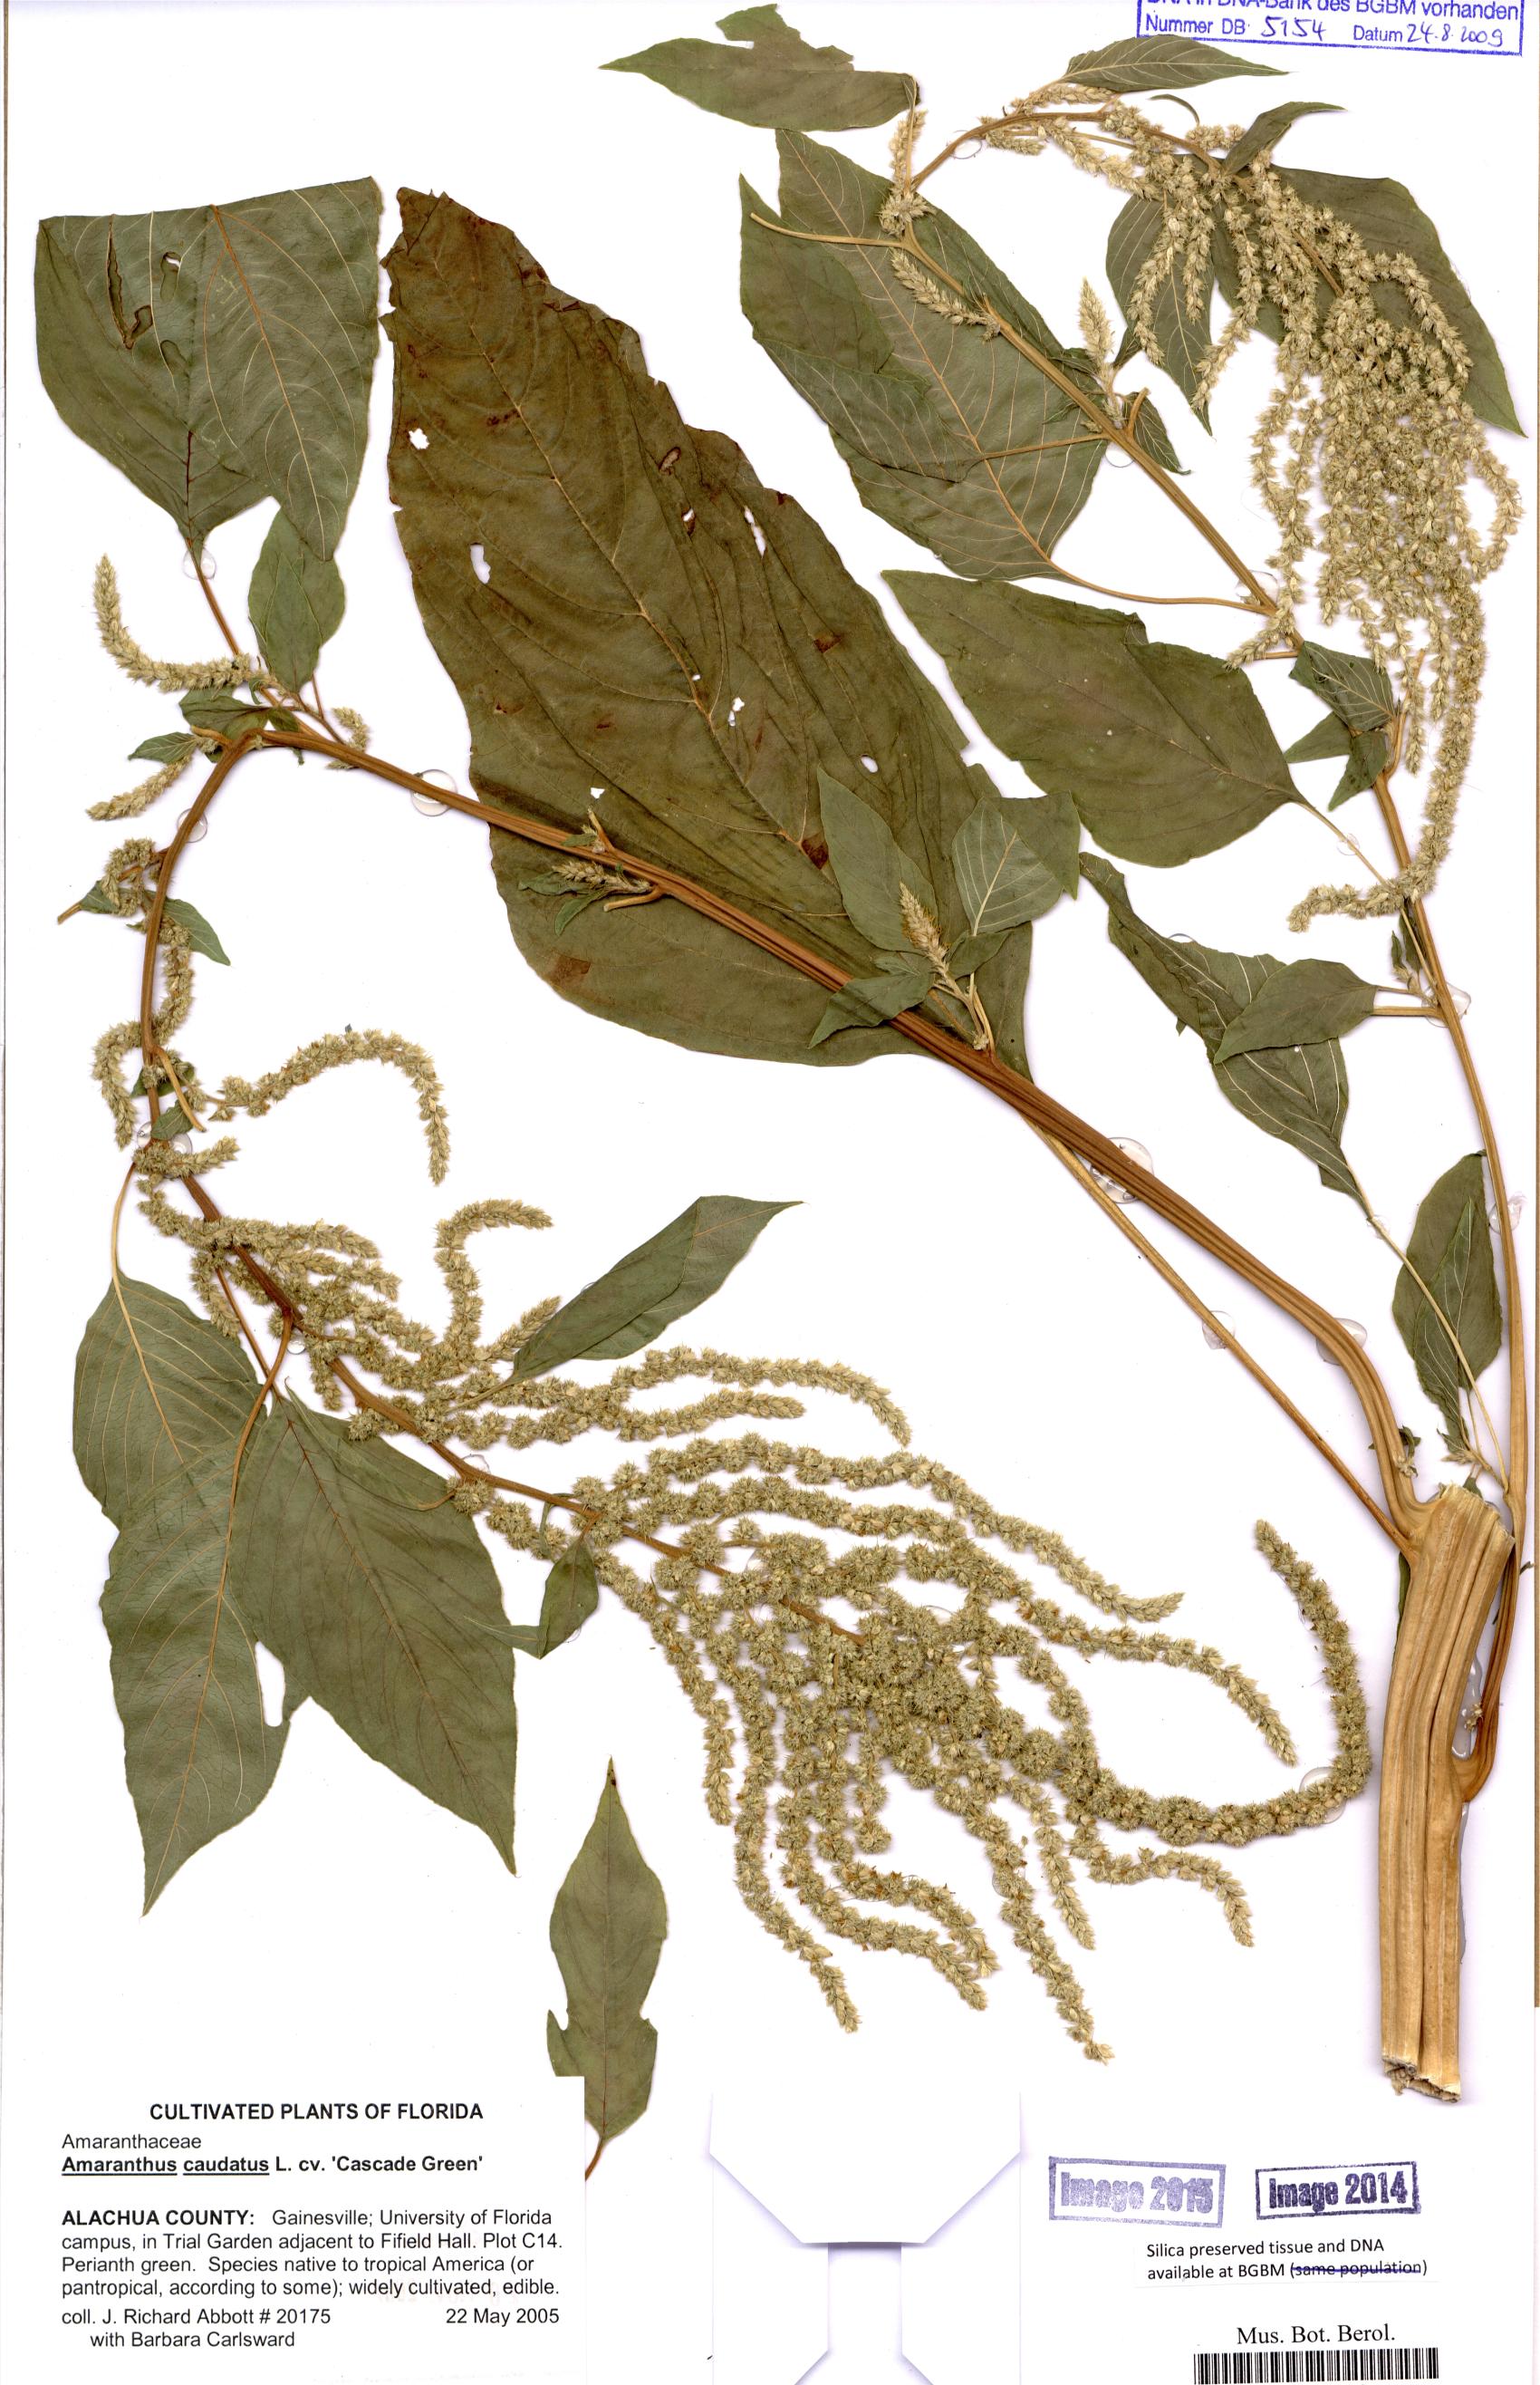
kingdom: Plantae
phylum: Tracheophyta
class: Magnoliopsida
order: Caryophyllales
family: Amaranthaceae
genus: Amaranthus
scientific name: Amaranthus caudatus
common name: Love-lies-bleeding
